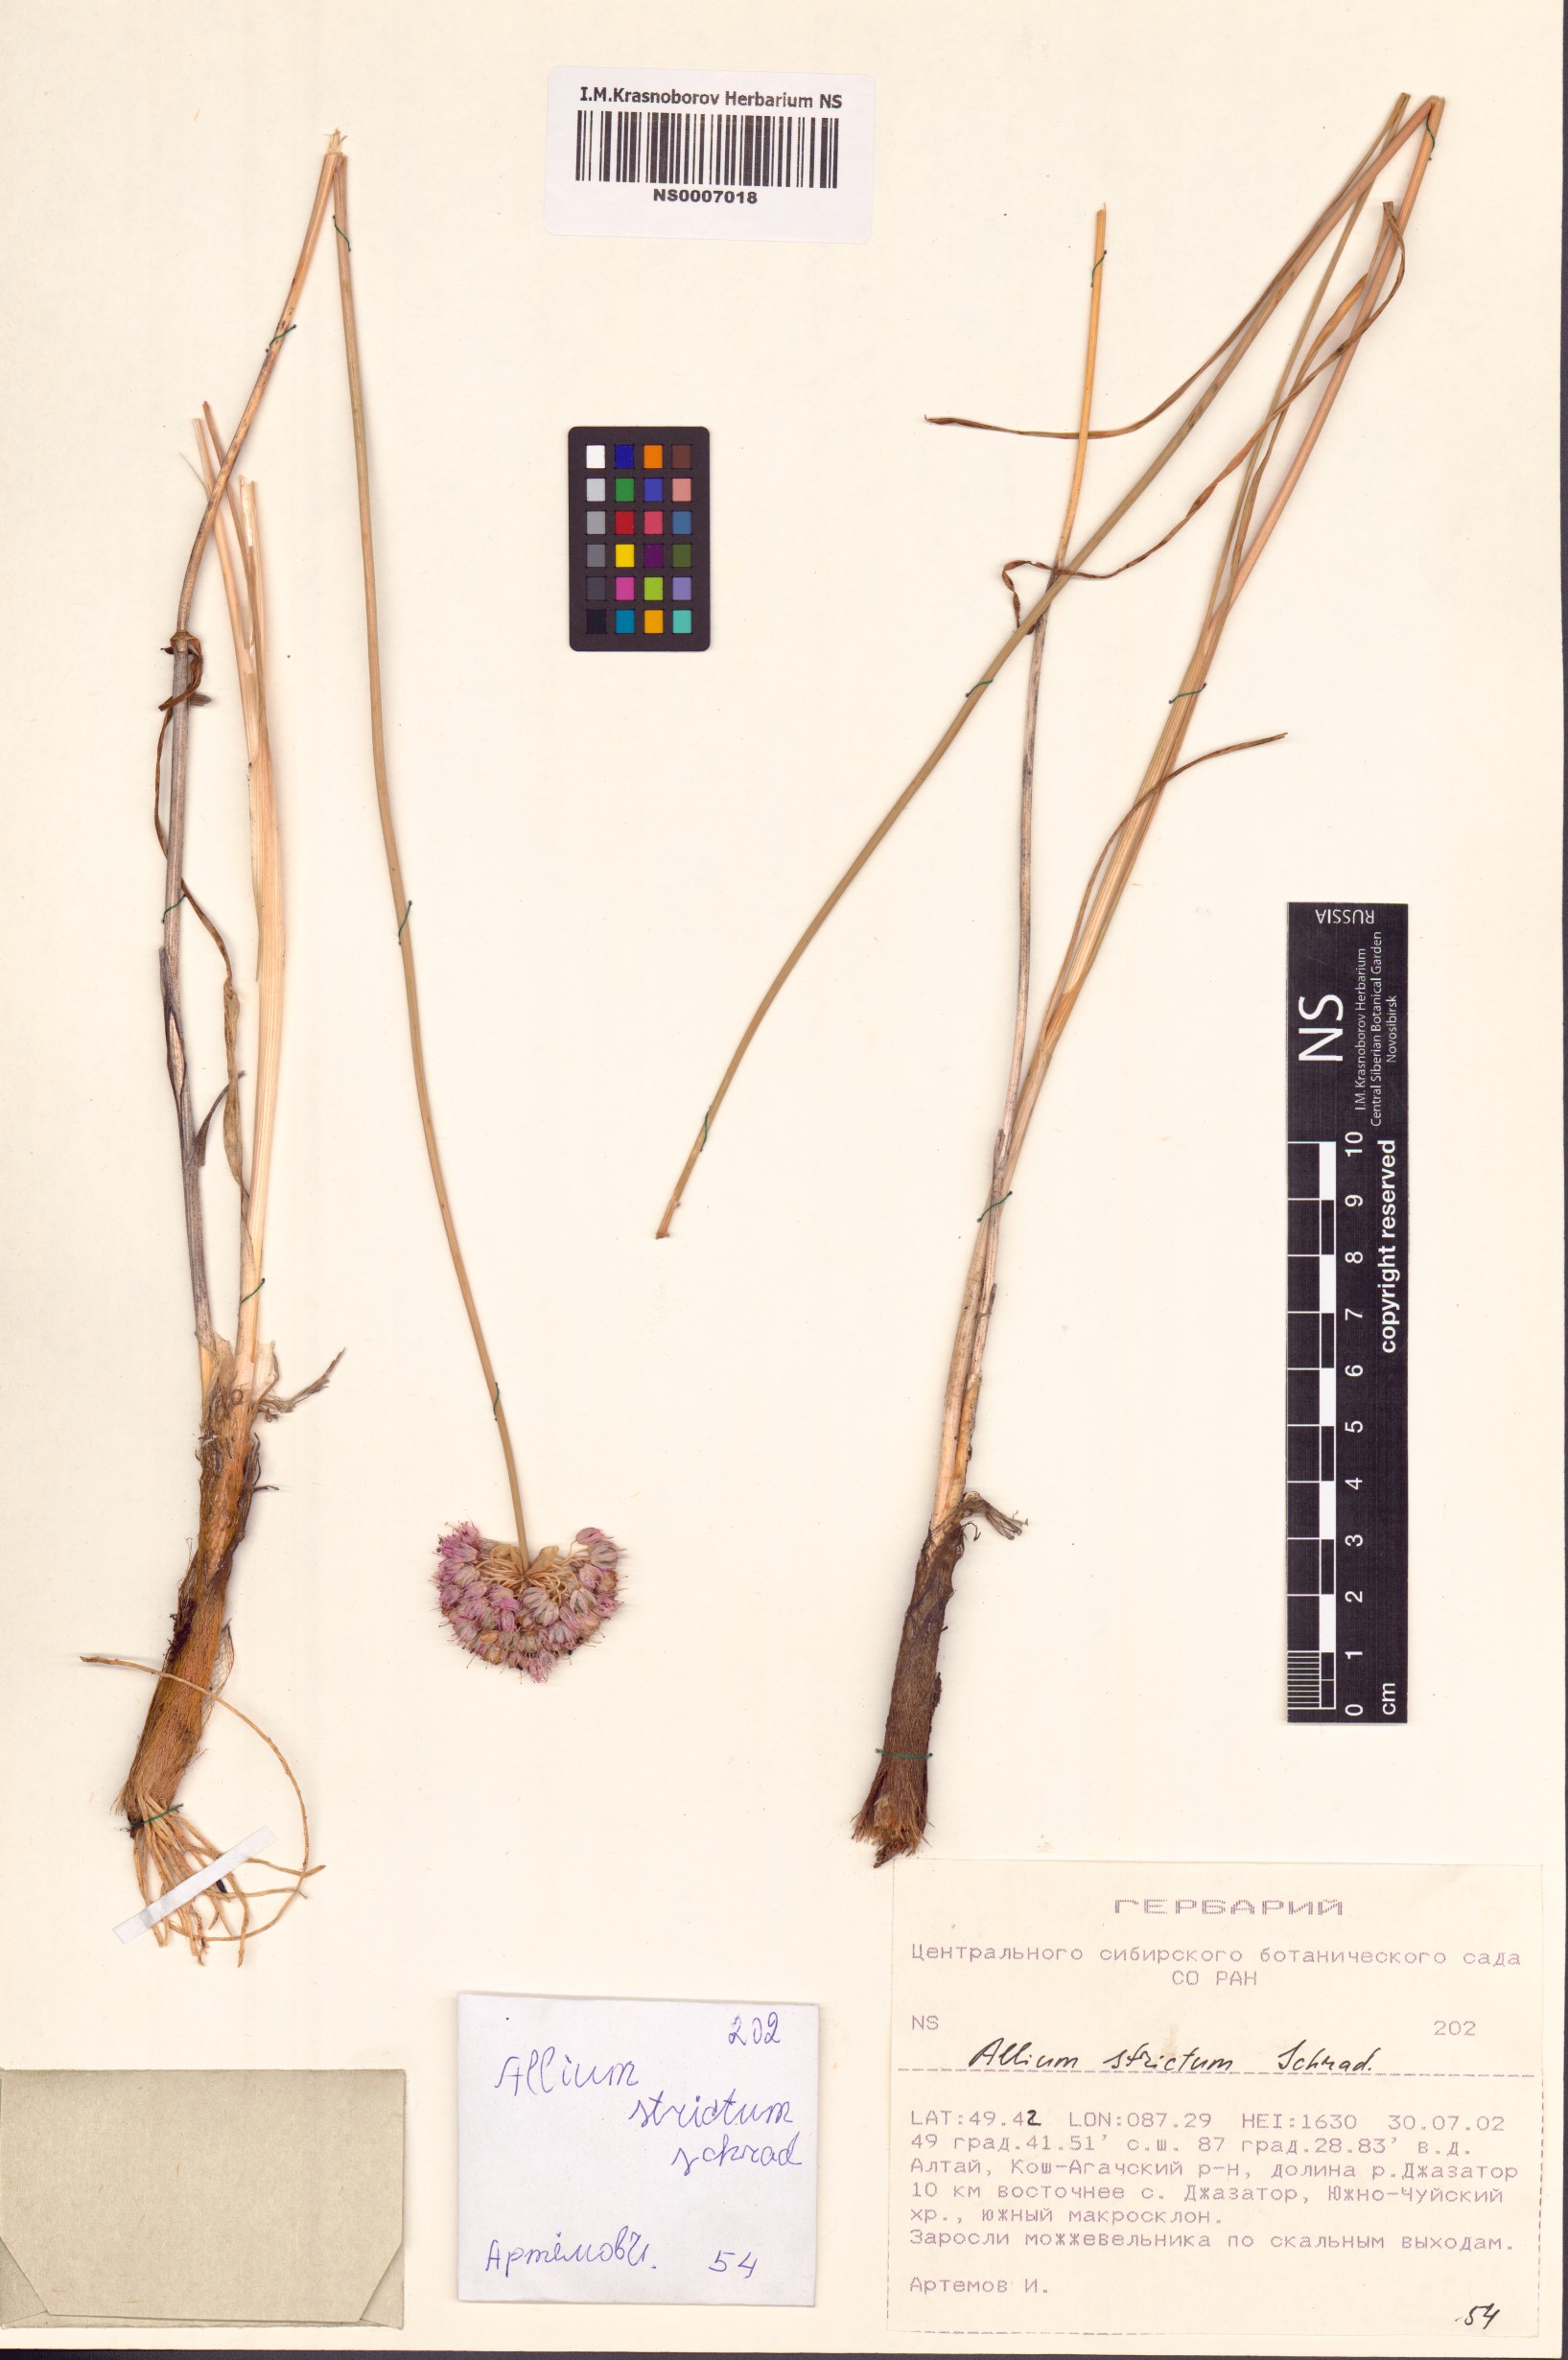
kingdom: Plantae
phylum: Tracheophyta
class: Liliopsida
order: Asparagales
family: Amaryllidaceae
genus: Allium
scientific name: Allium strictum
